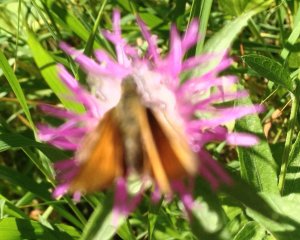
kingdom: Animalia
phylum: Arthropoda
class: Insecta
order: Lepidoptera
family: Hesperiidae
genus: Thymelicus
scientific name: Thymelicus lineola
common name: European Skipper
